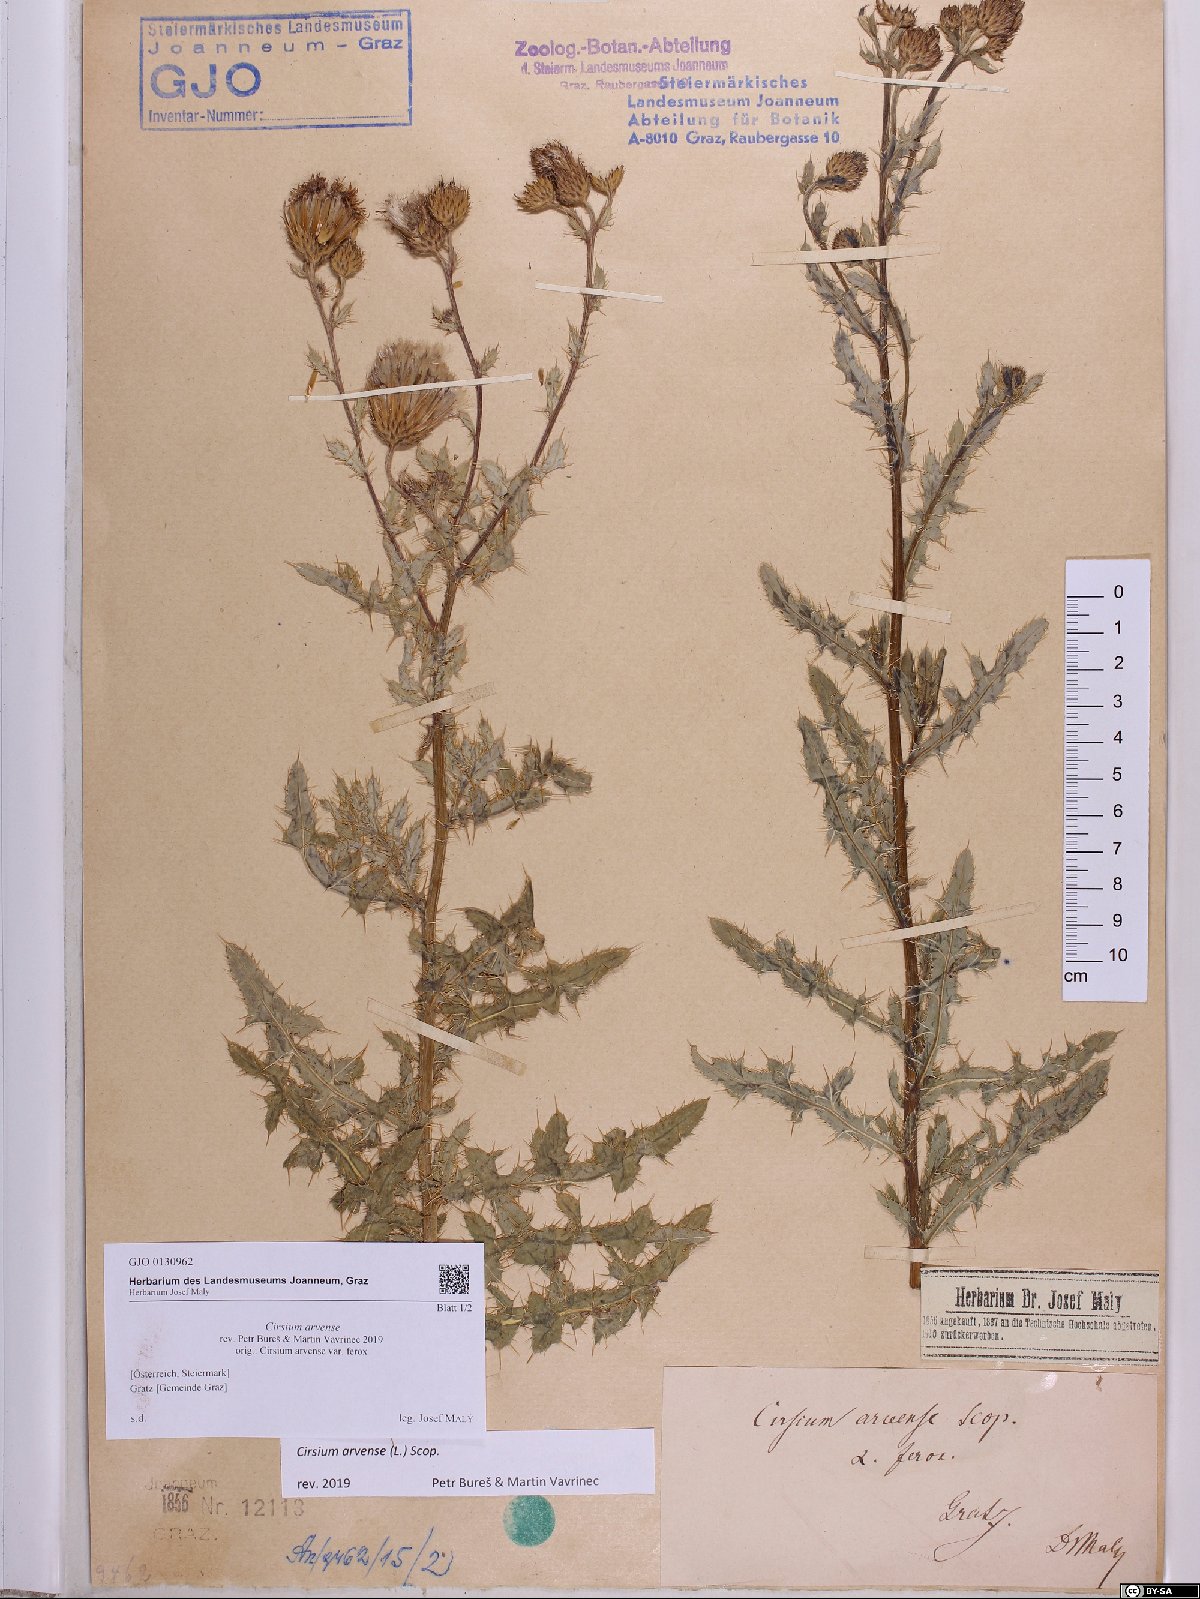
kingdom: Plantae
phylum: Tracheophyta
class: Magnoliopsida
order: Asterales
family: Asteraceae
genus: Cirsium
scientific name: Cirsium arvense
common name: Creeping thistle
